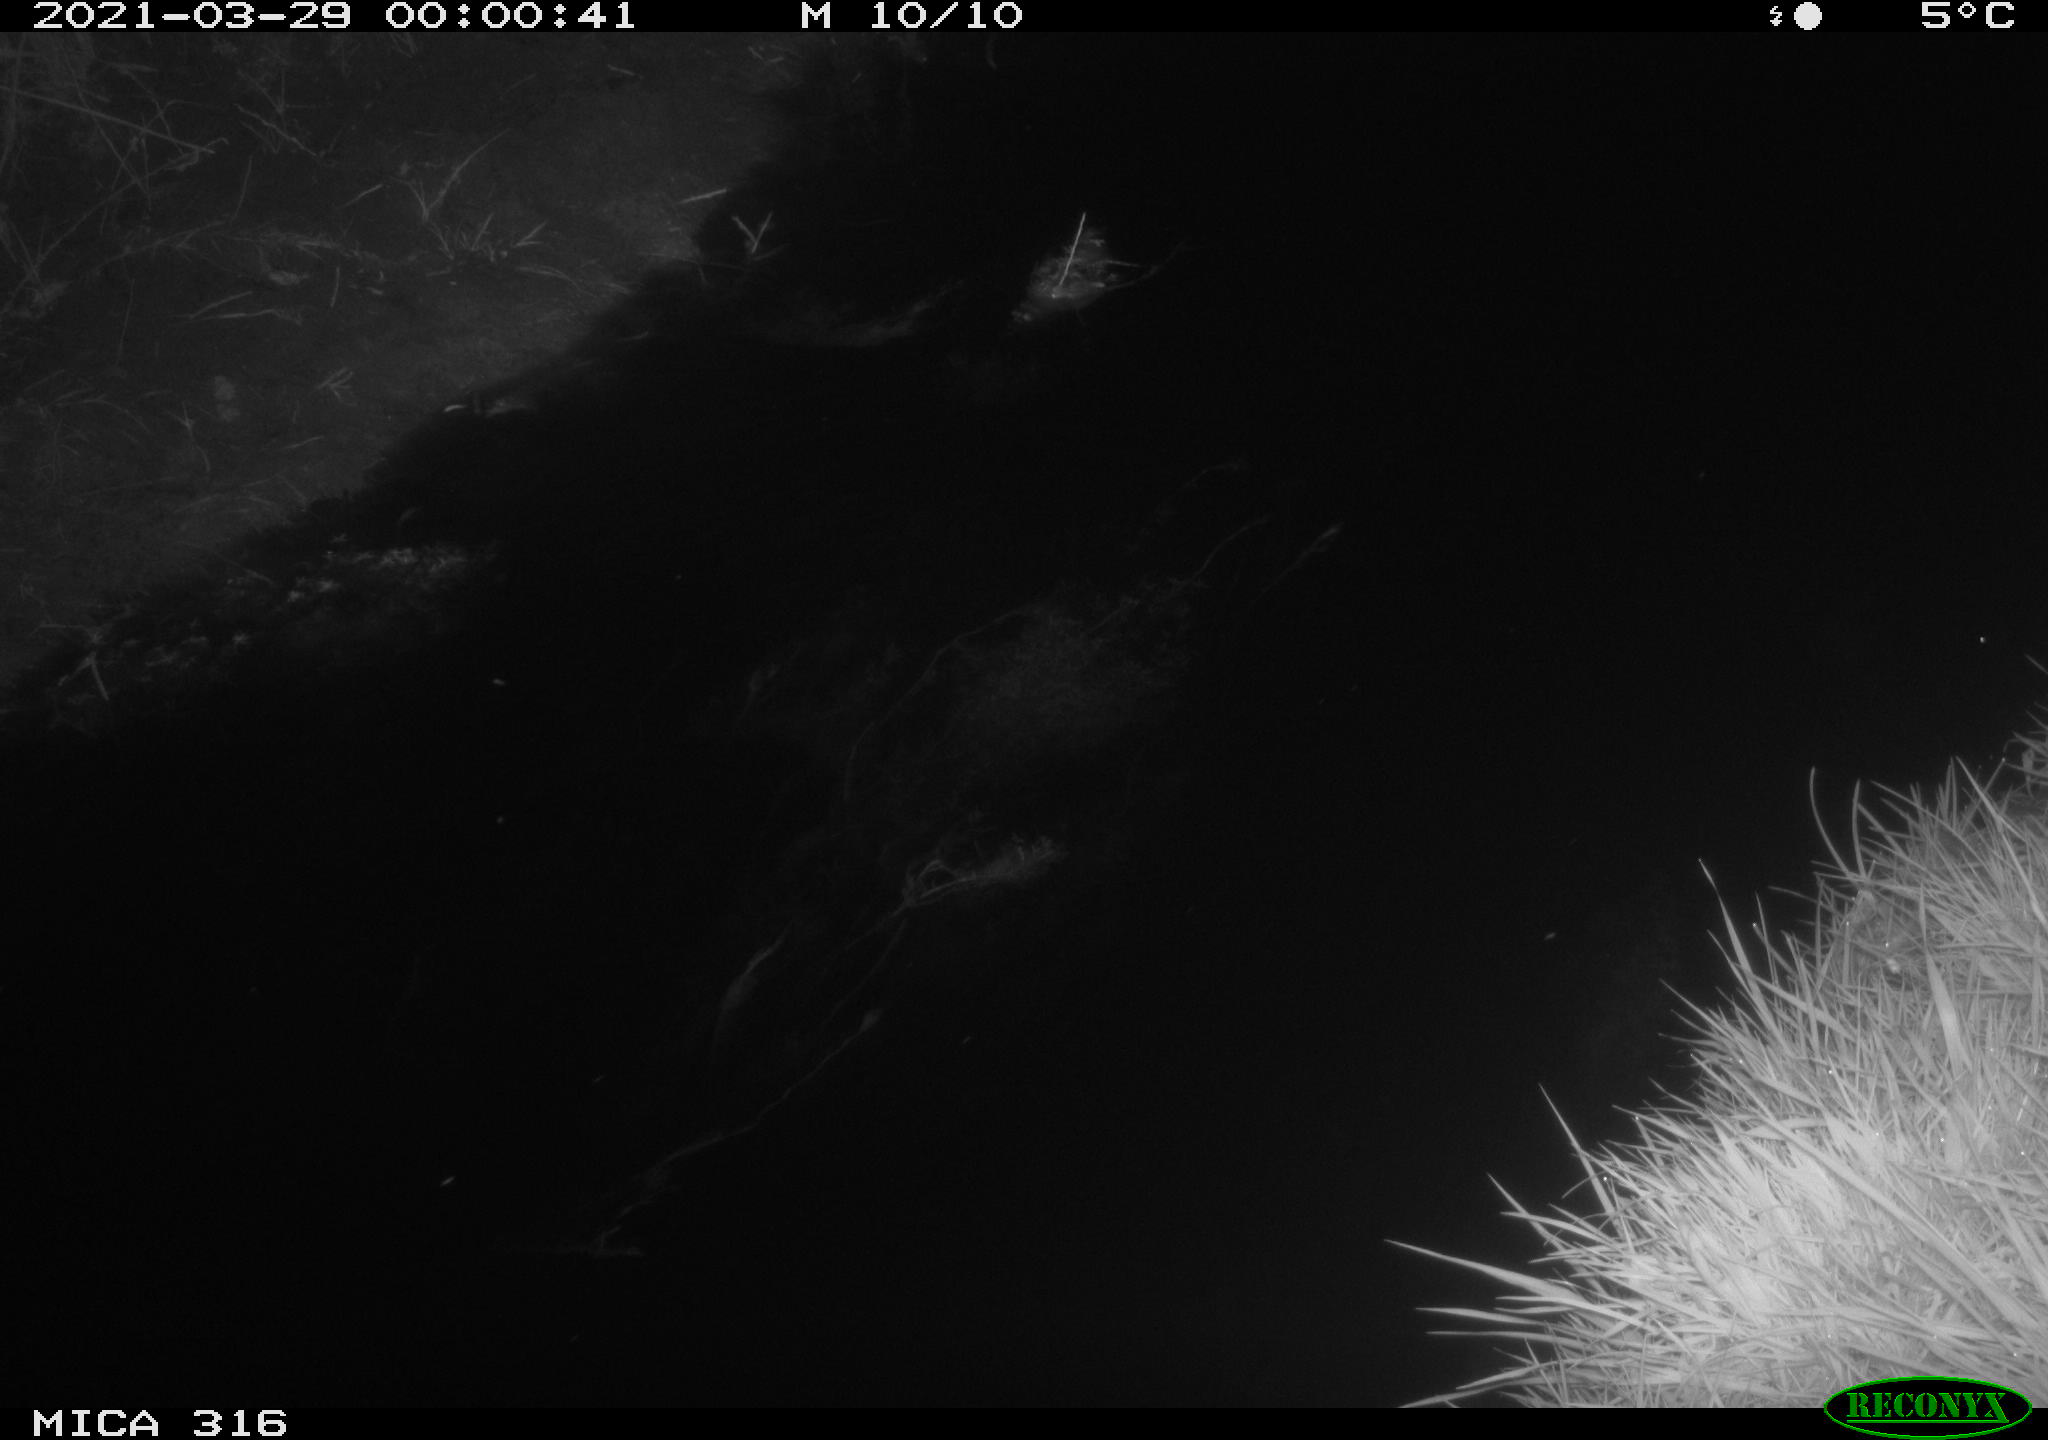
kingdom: Animalia
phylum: Chordata
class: Aves
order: Anseriformes
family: Anatidae
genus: Anas
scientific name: Anas platyrhynchos
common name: Mallard
